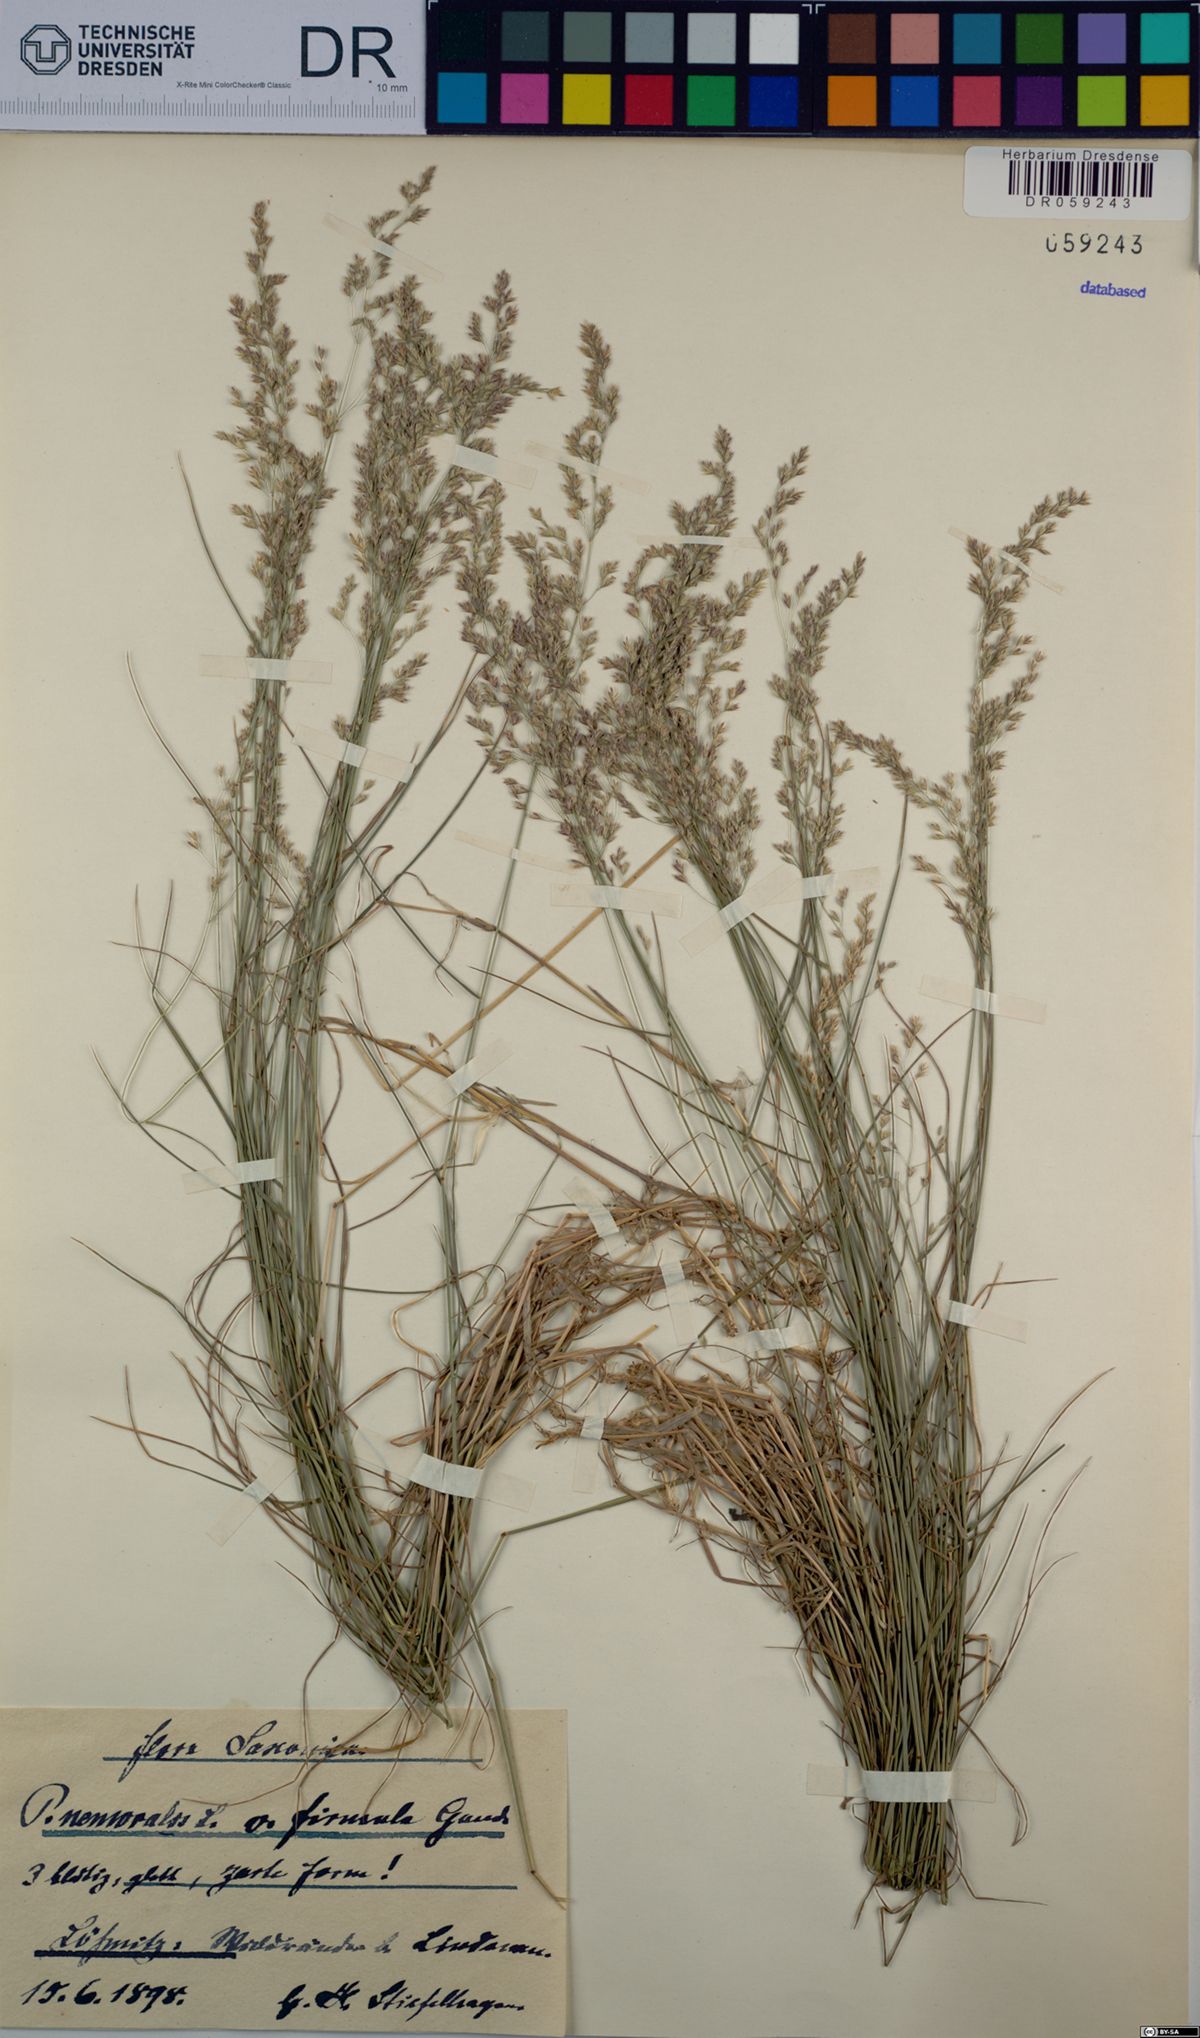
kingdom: Plantae
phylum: Tracheophyta
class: Liliopsida
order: Poales
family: Poaceae
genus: Poa
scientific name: Poa nemoralis
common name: Wood bluegrass
